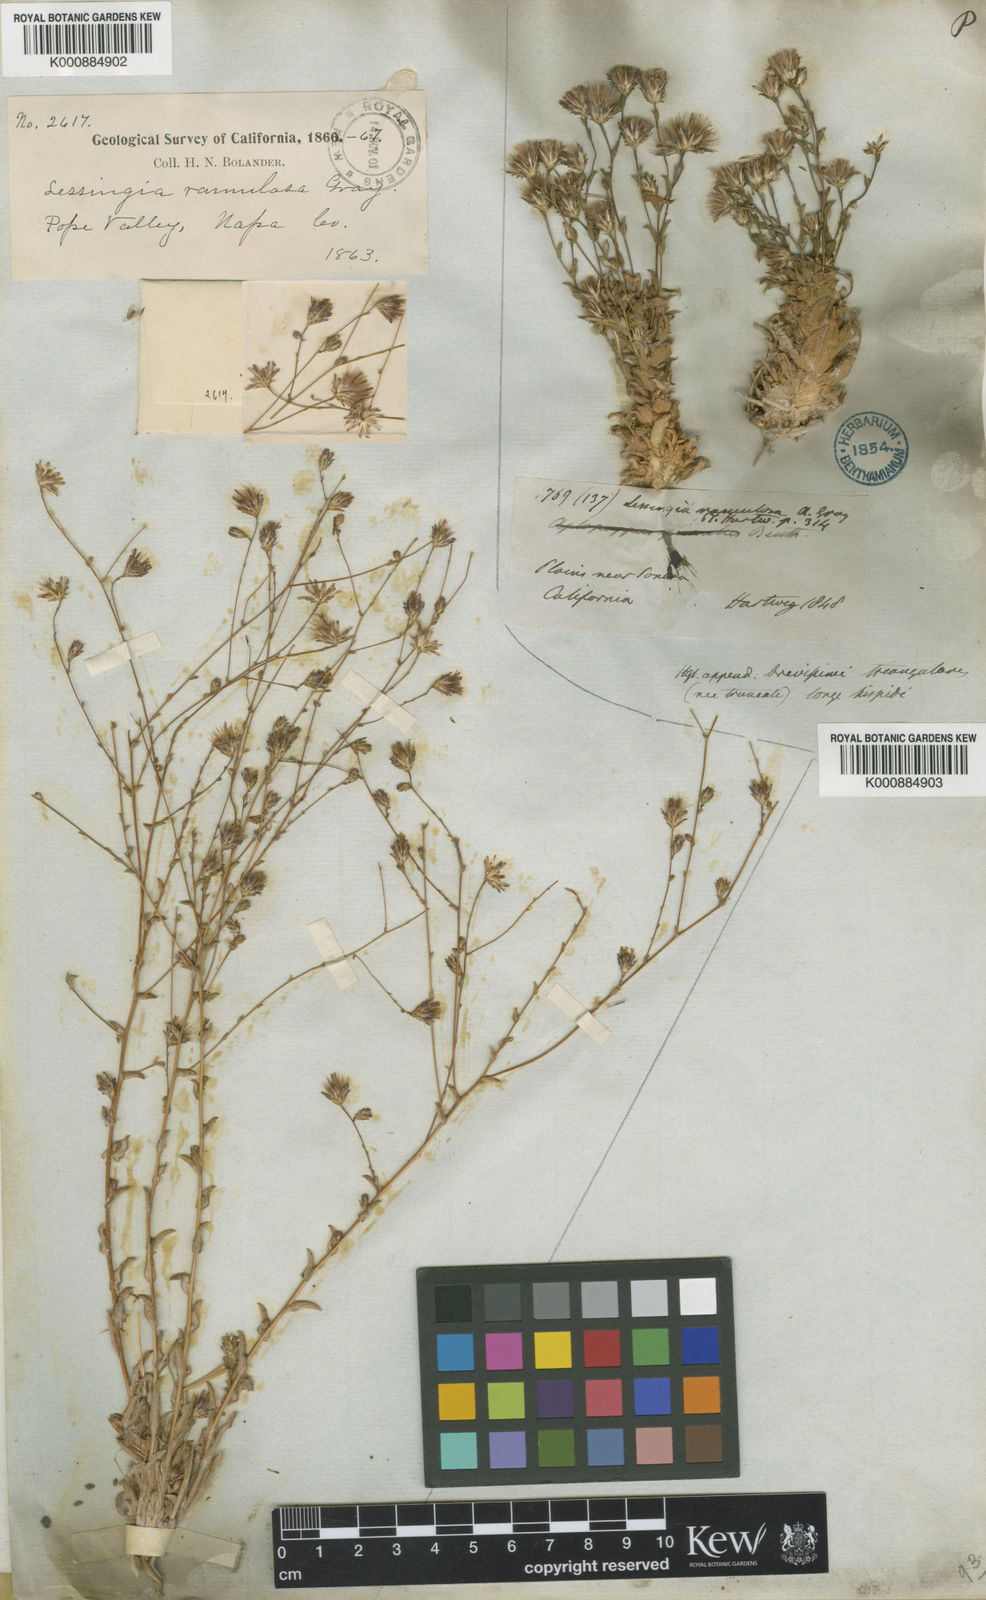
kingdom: Plantae
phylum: Tracheophyta
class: Magnoliopsida
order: Asterales
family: Asteraceae
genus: Lessingia
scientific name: Lessingia
